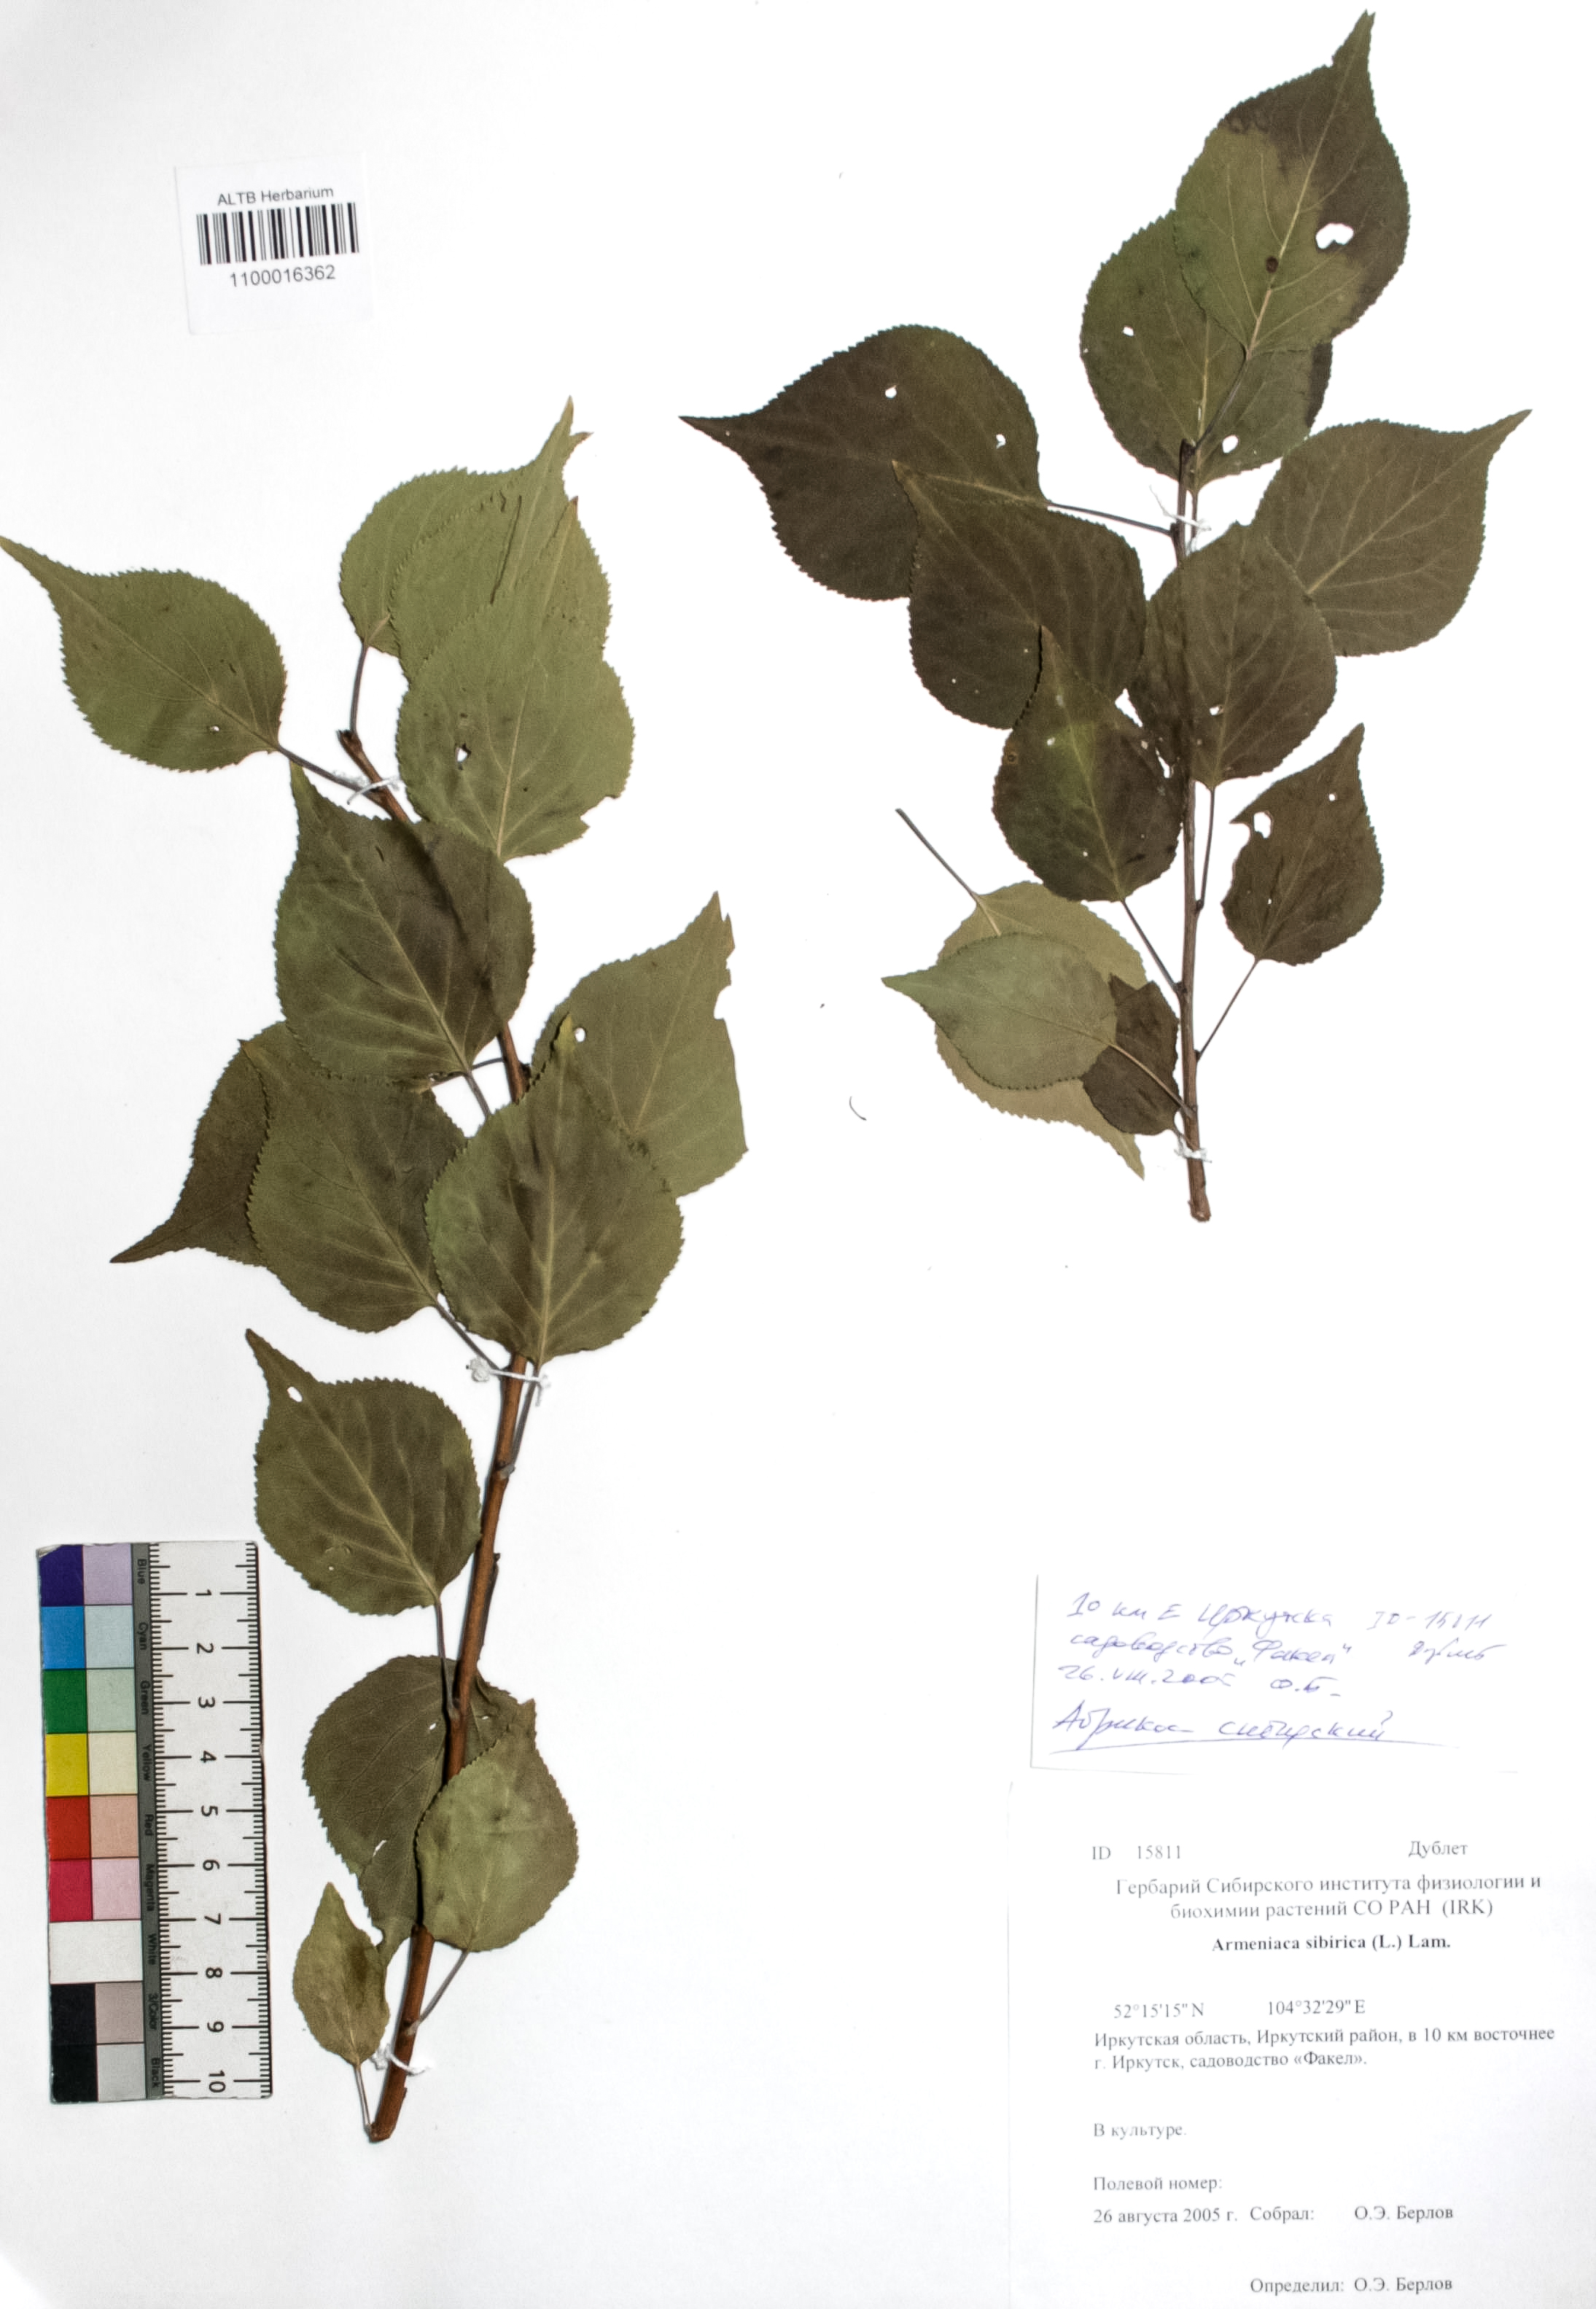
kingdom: Plantae
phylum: Tracheophyta
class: Magnoliopsida
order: Rosales
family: Rosaceae
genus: Prunus
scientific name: Prunus sibirica
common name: Siberian apricot
